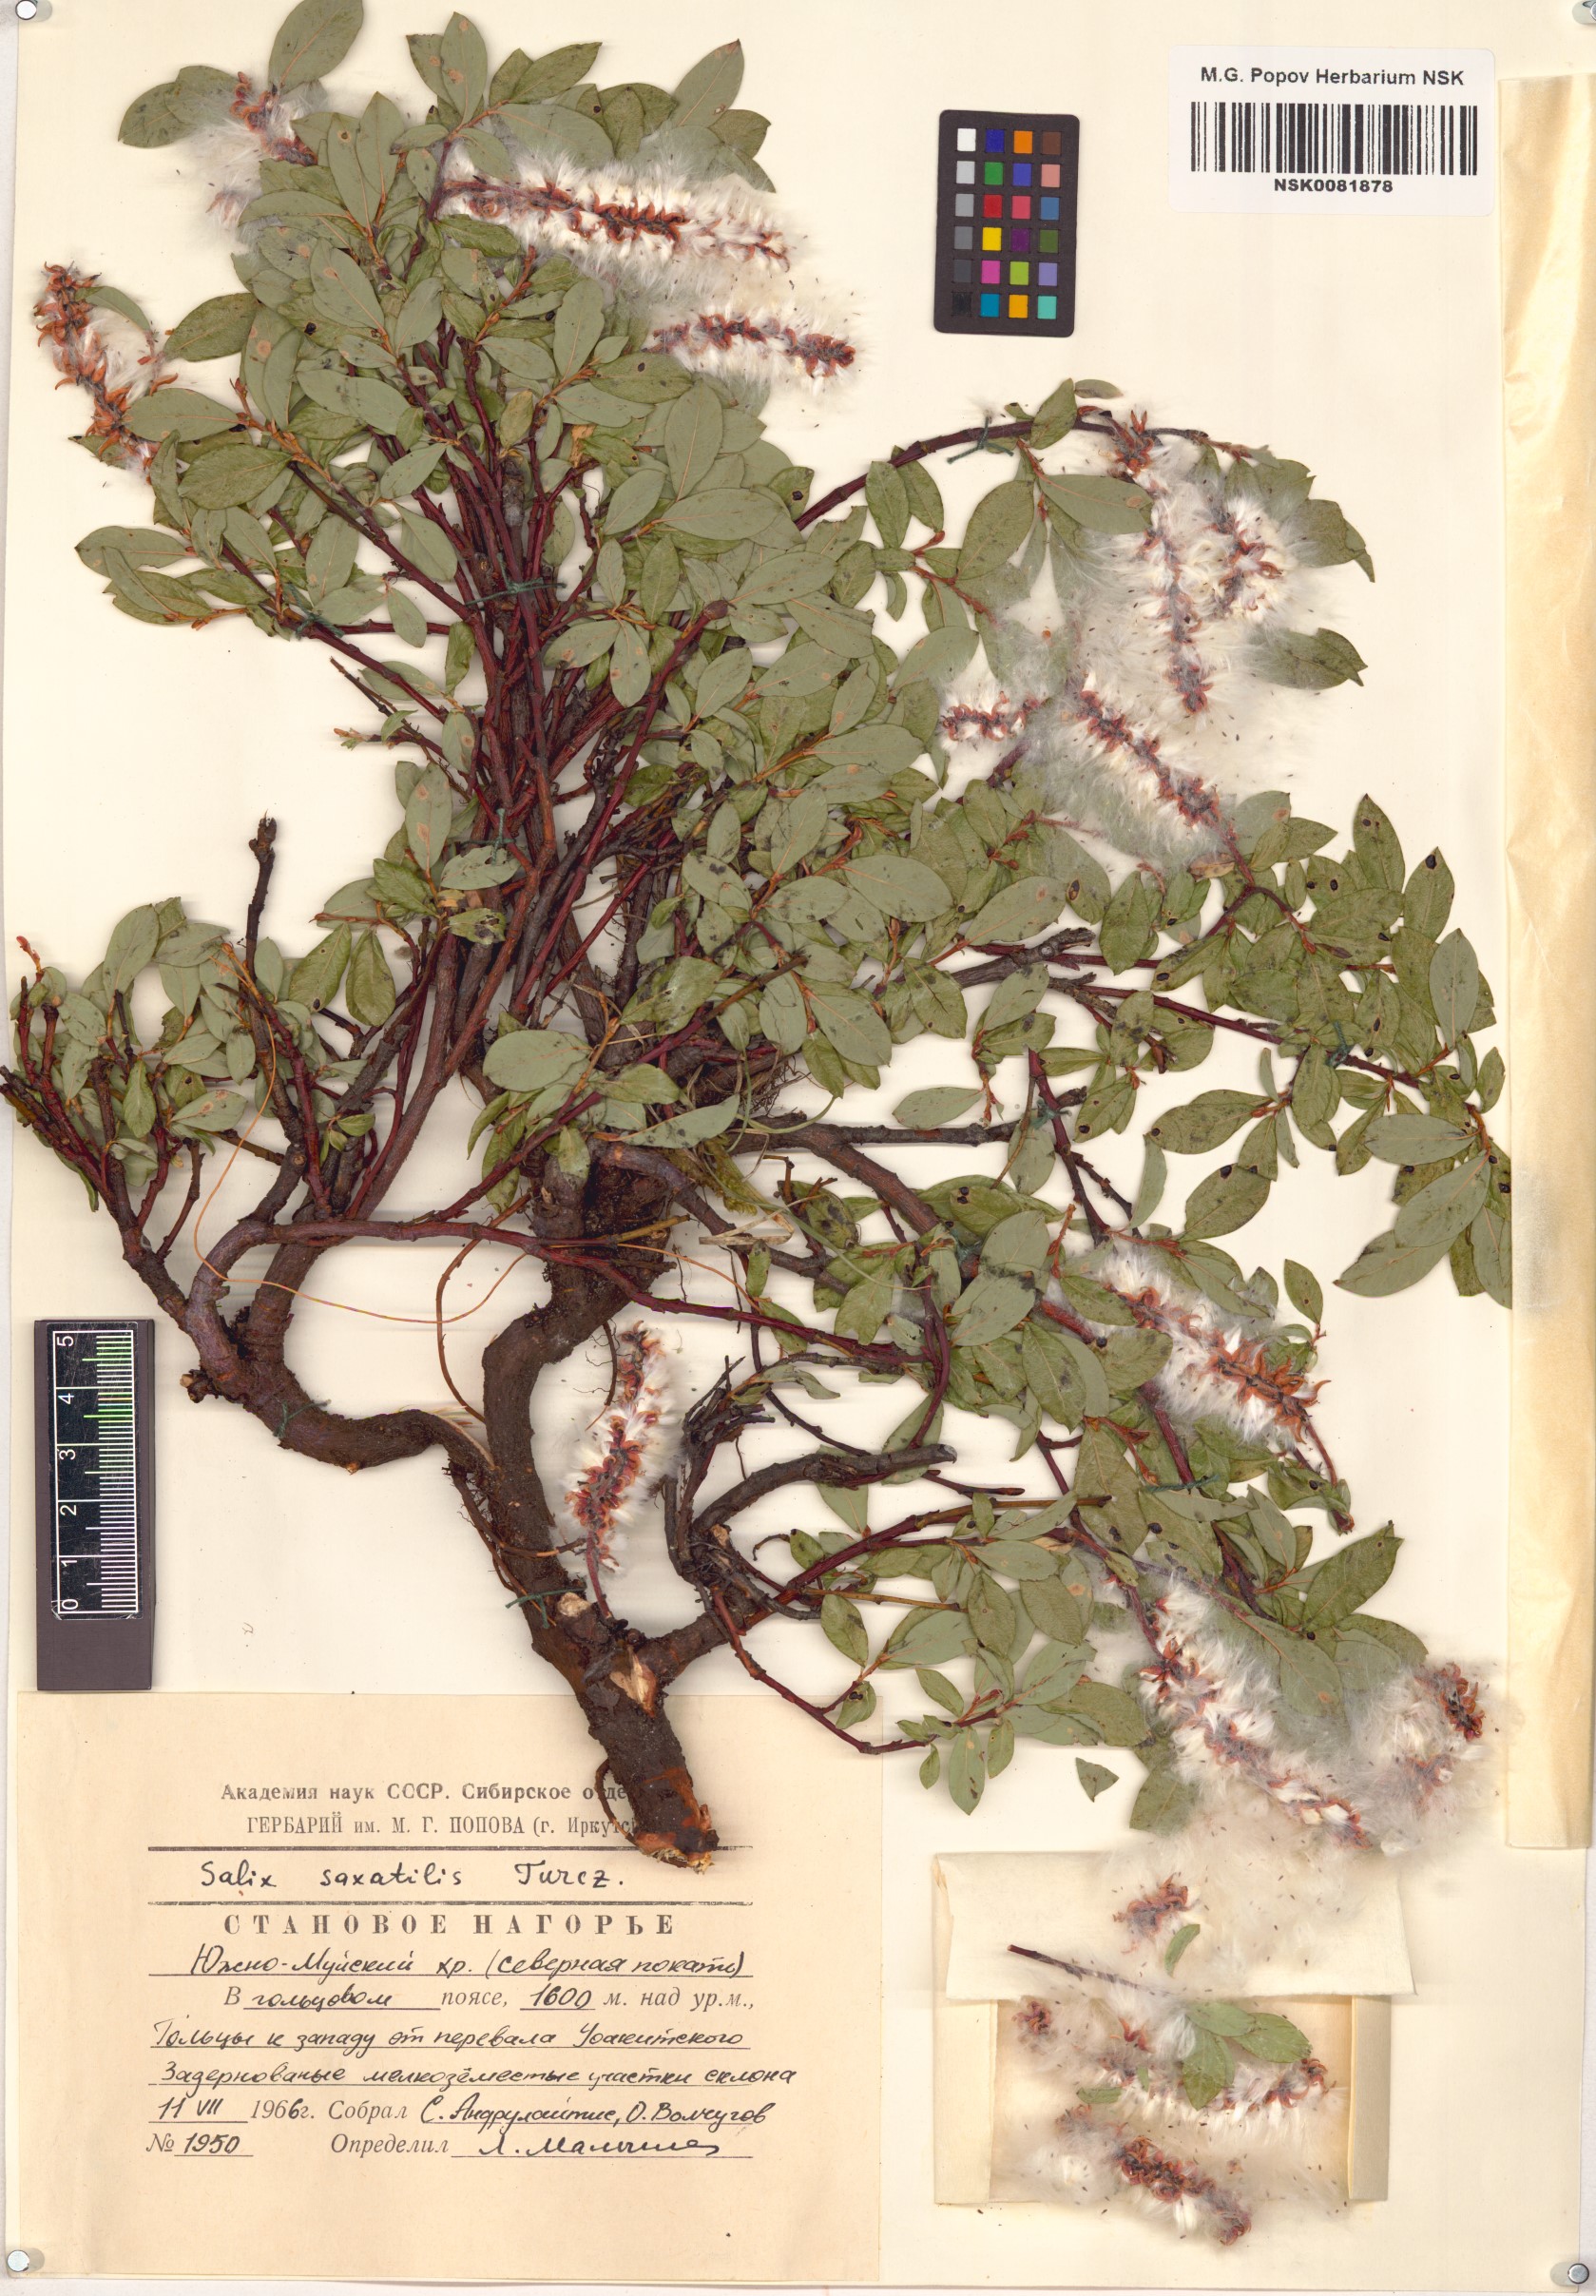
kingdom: Plantae
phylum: Tracheophyta
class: Magnoliopsida
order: Malpighiales
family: Salicaceae
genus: Salix
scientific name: Salix saxatilis
